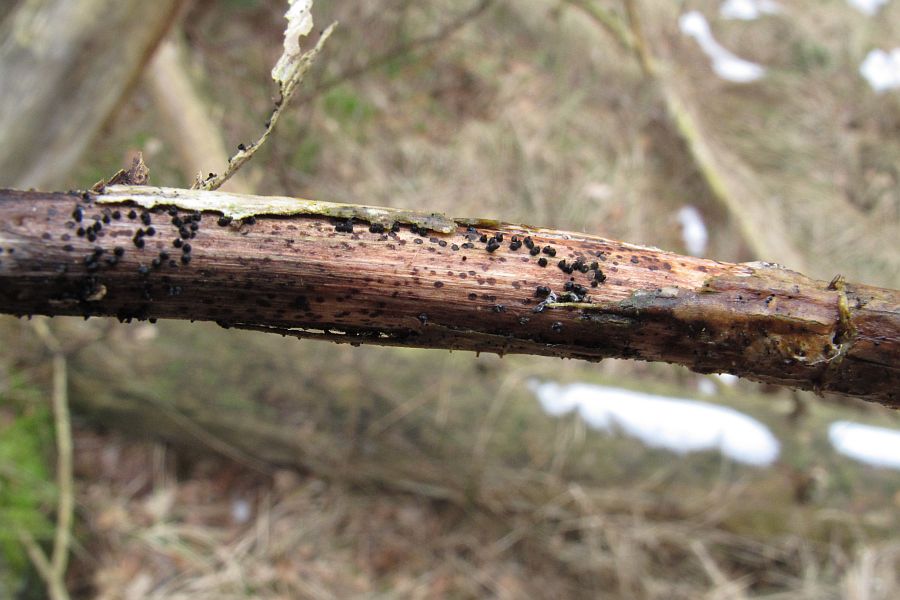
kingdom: Fungi
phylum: Ascomycota
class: Dothideomycetes
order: Pleosporales
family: Leptosphaeriaceae
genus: Leptosphaeria
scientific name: Leptosphaeria acuta
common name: spids kulkegle
